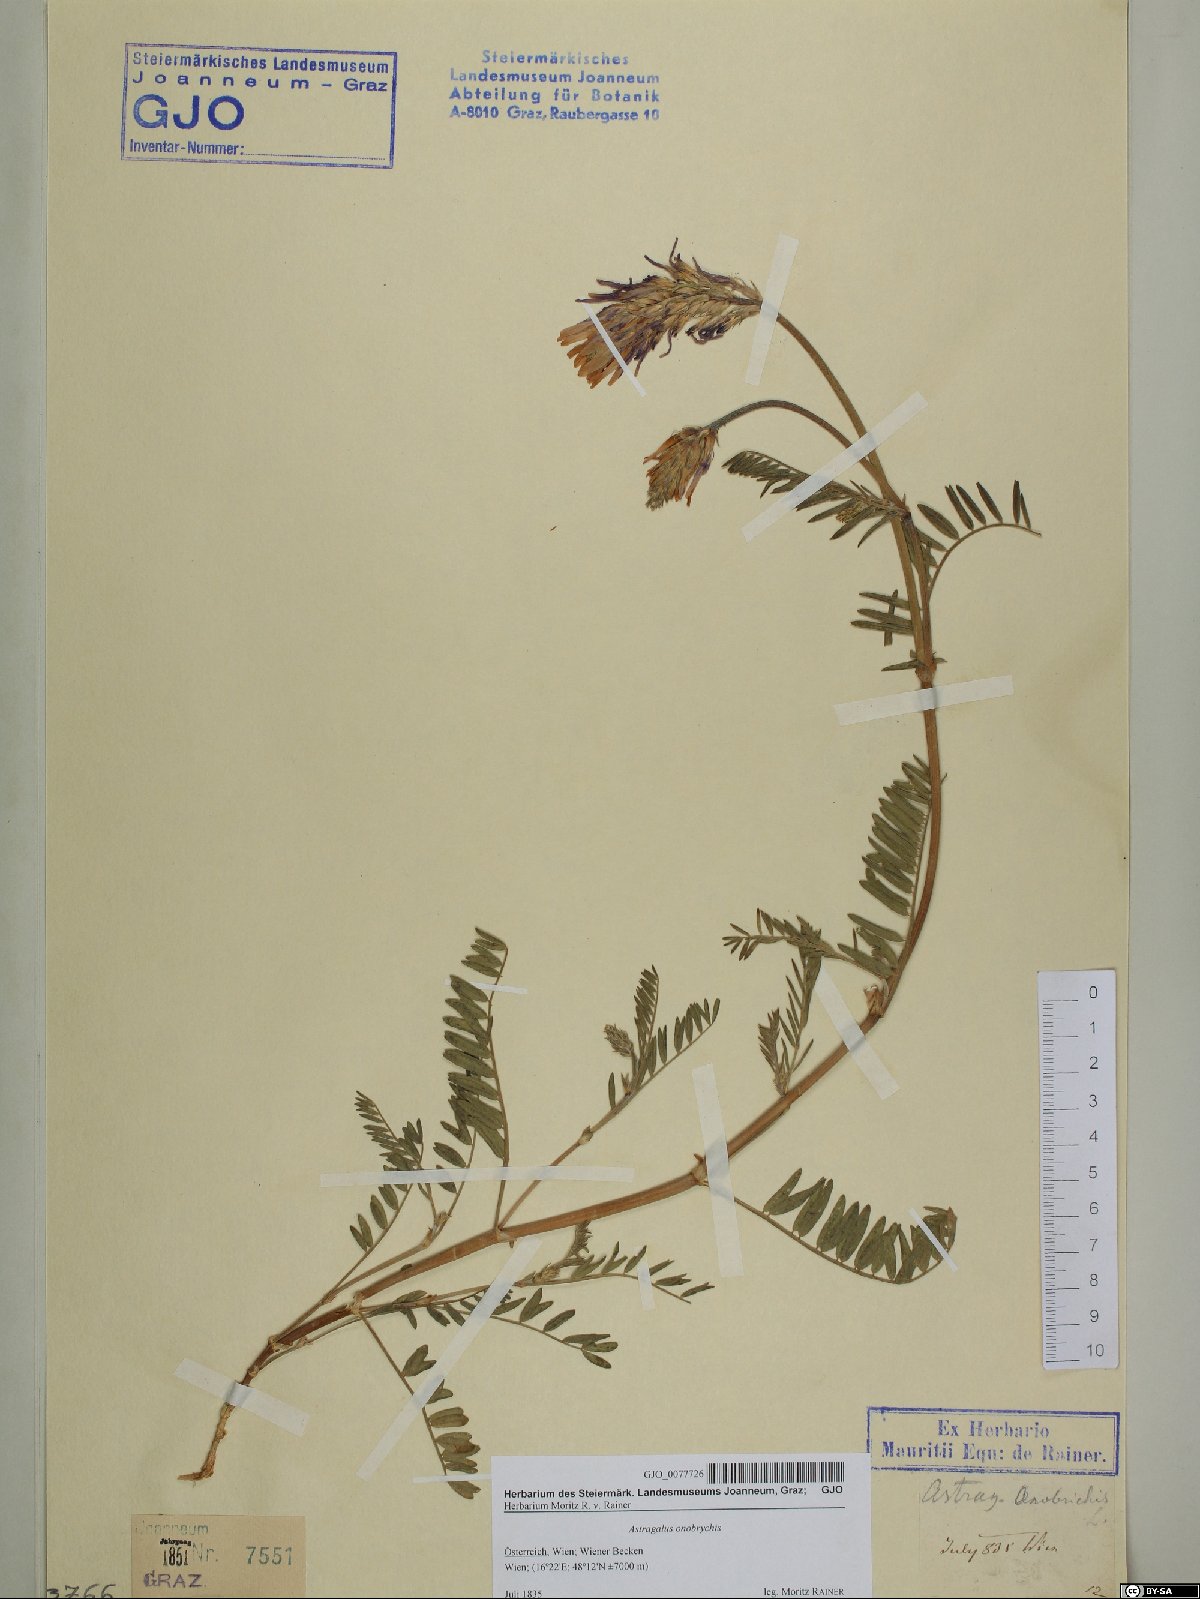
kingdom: Plantae
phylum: Tracheophyta
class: Magnoliopsida
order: Fabales
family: Fabaceae
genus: Astragalus
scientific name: Astragalus onobrychis
